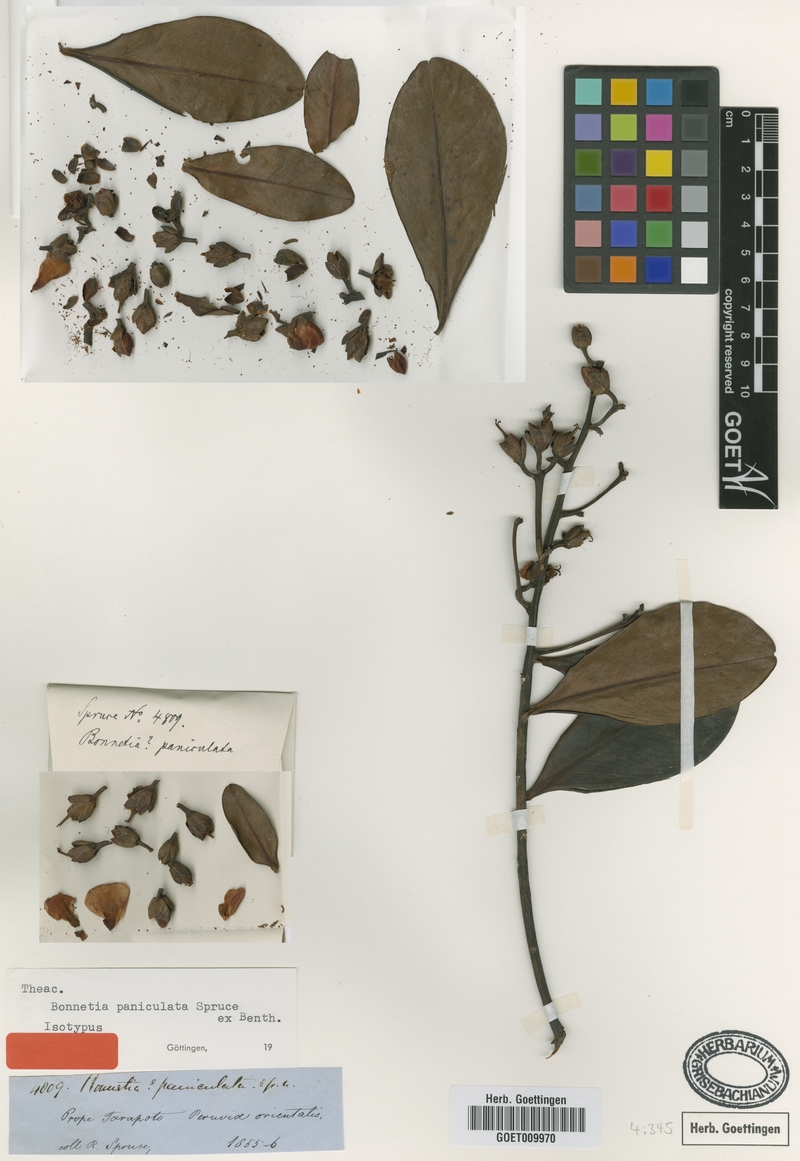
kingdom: Plantae
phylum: Tracheophyta
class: Magnoliopsida
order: Malpighiales
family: Bonnetiaceae
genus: Bonnetia
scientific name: Bonnetia paniculata
